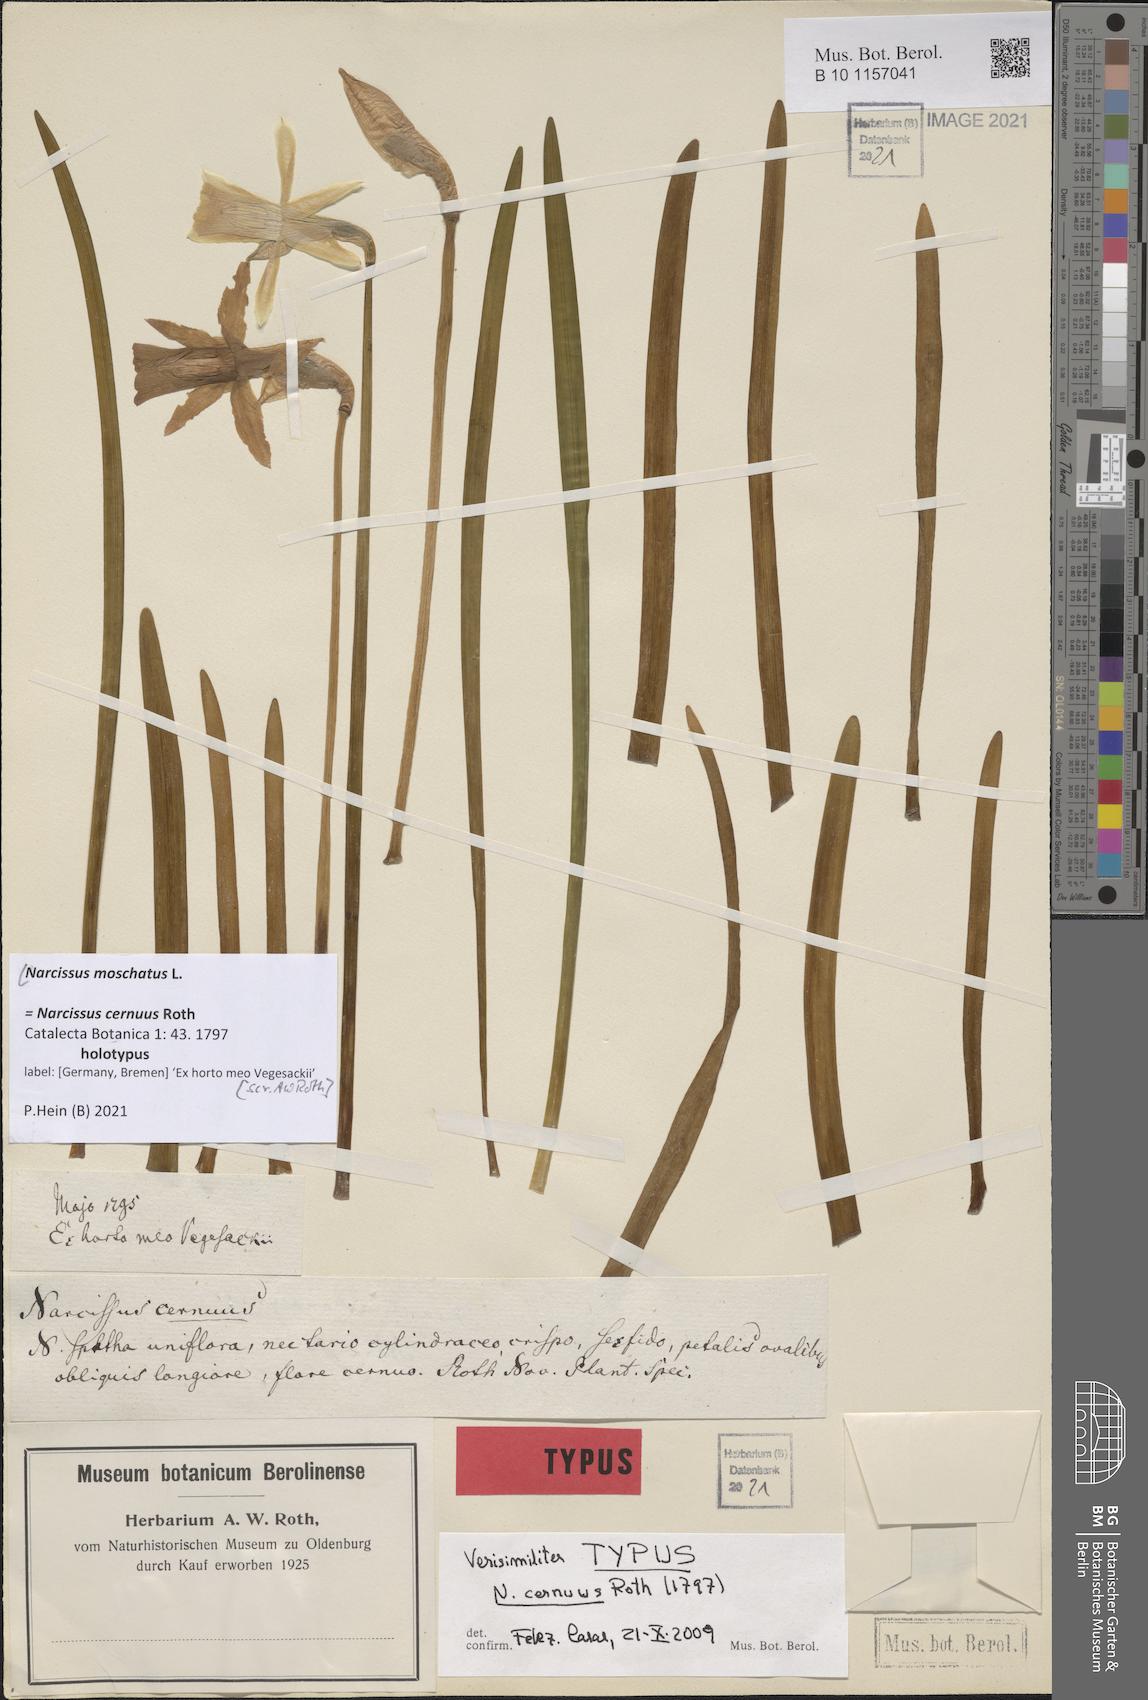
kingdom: Plantae
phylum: Tracheophyta
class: Liliopsida
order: Asparagales
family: Amaryllidaceae
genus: Narcissus
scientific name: Narcissus moschatus
